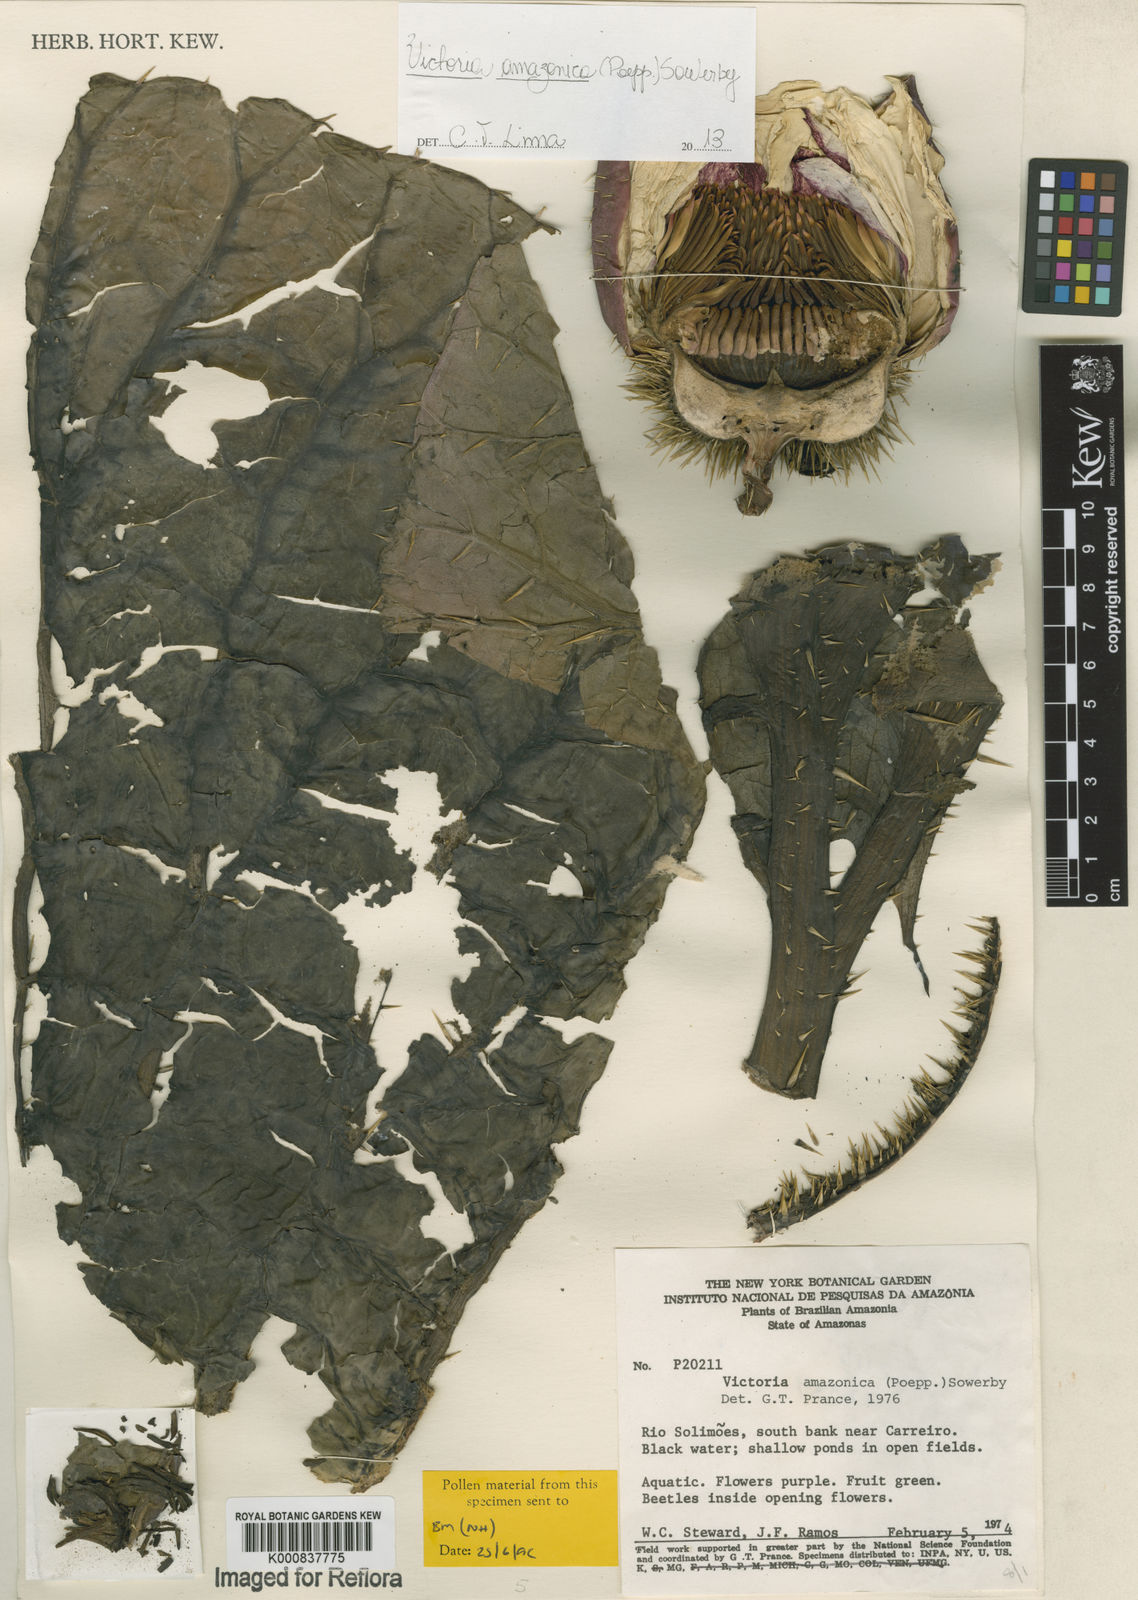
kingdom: Plantae
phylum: Tracheophyta
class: Magnoliopsida
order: Nymphaeales
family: Nymphaeaceae
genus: Victoria
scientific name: Victoria
